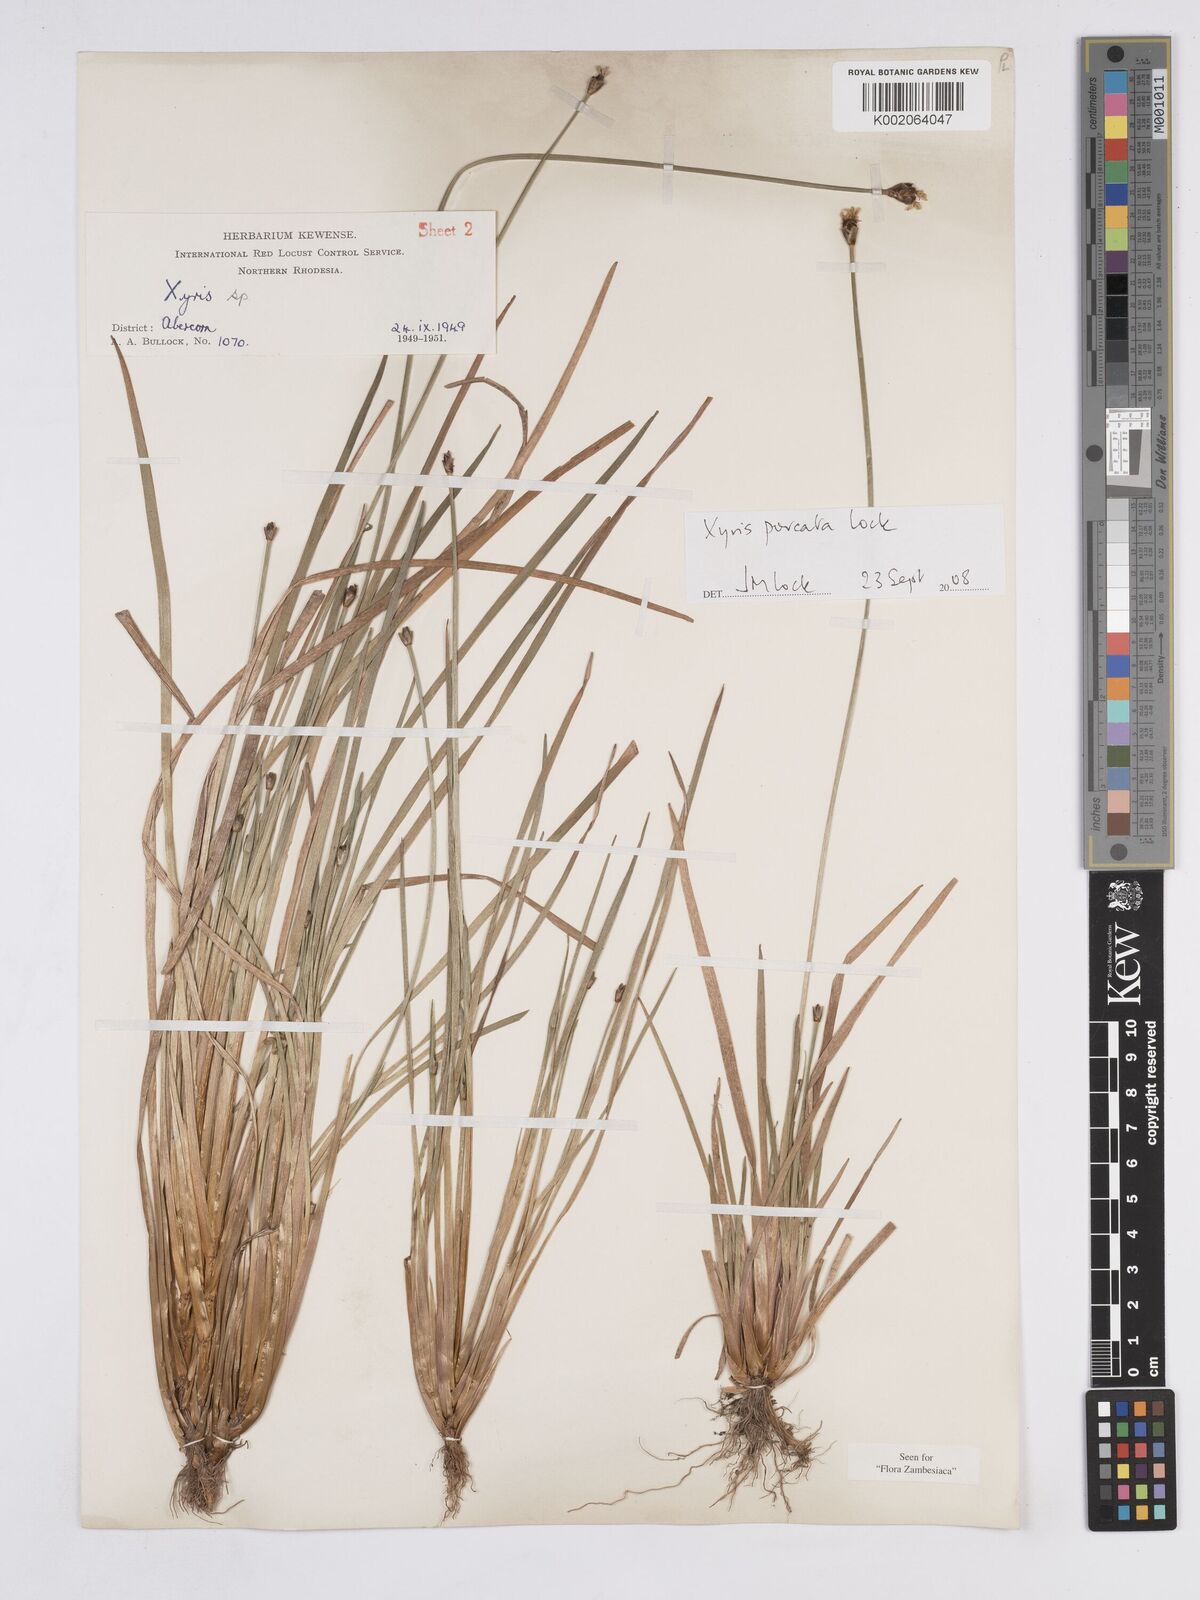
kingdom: Plantae
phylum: Tracheophyta
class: Liliopsida
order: Poales
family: Xyridaceae
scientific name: Xyridaceae
